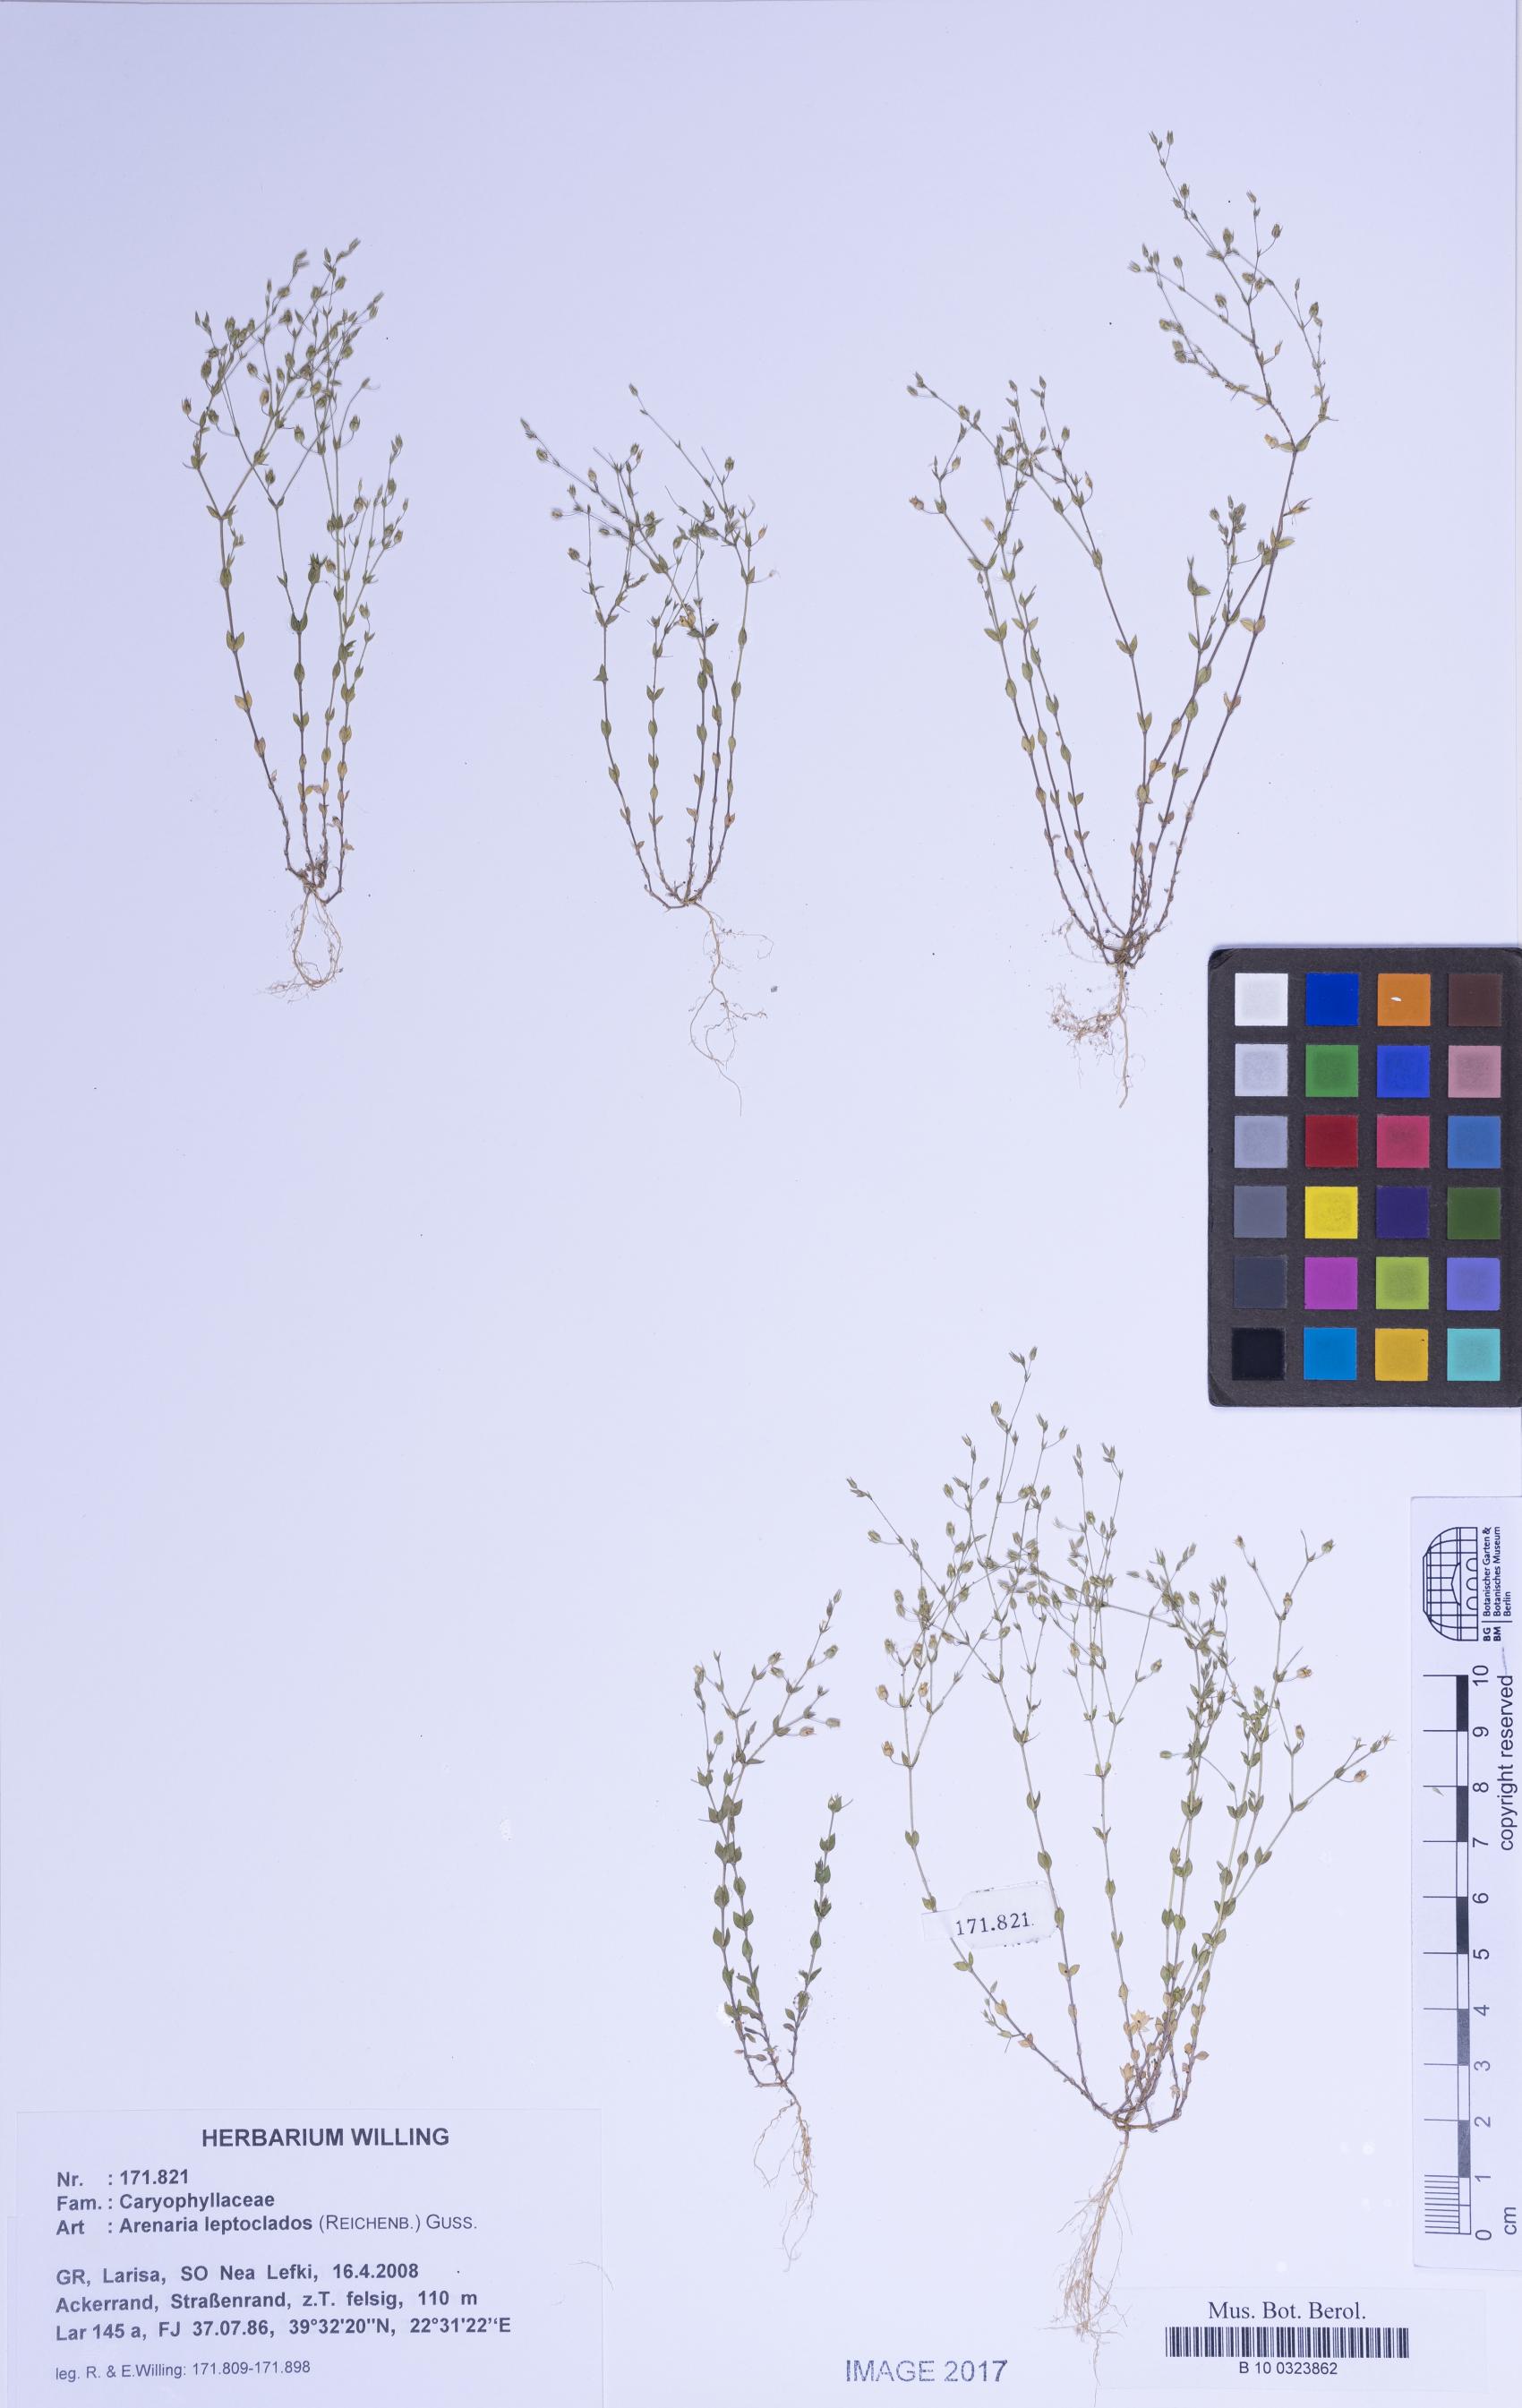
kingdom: Plantae
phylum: Tracheophyta
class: Magnoliopsida
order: Caryophyllales
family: Caryophyllaceae
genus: Arenaria
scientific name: Arenaria leptoclados
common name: Thyme-leaved sandwort
